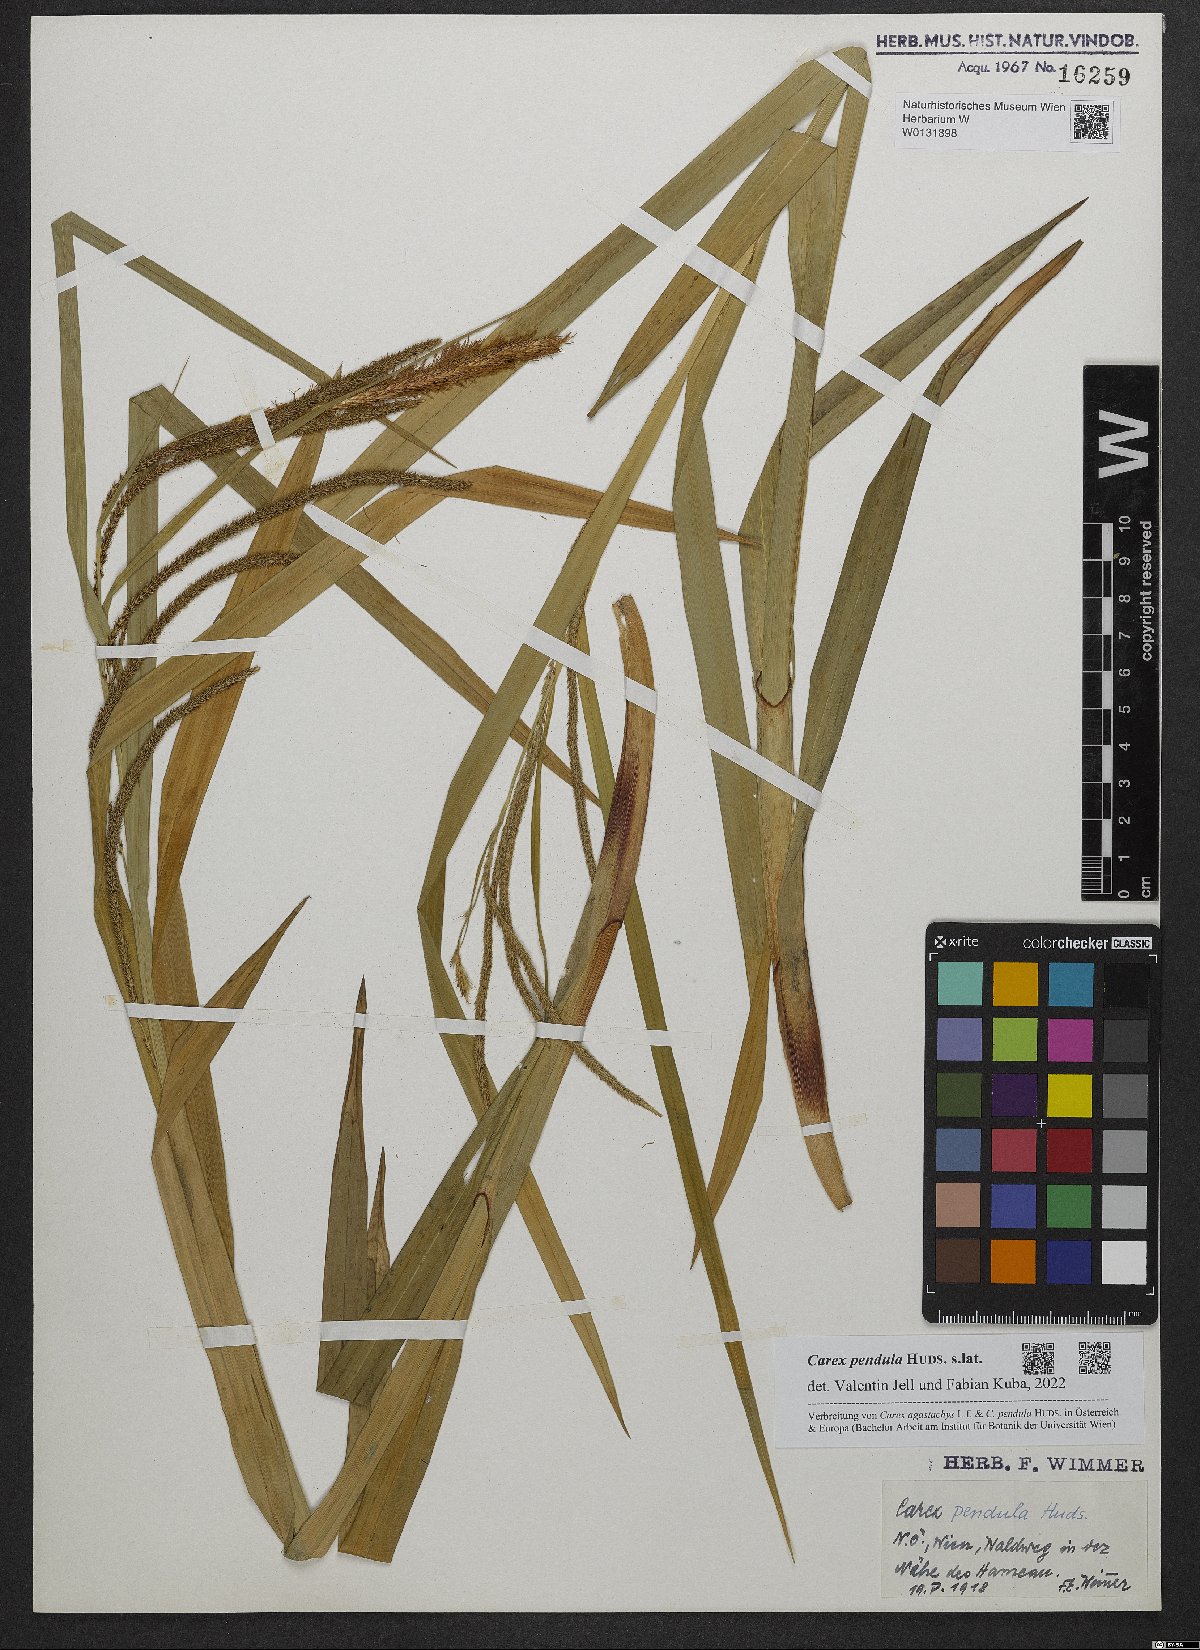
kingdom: Plantae
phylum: Tracheophyta
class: Liliopsida
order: Poales
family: Cyperaceae
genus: Carex
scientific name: Carex pendula
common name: Pendulous sedge
